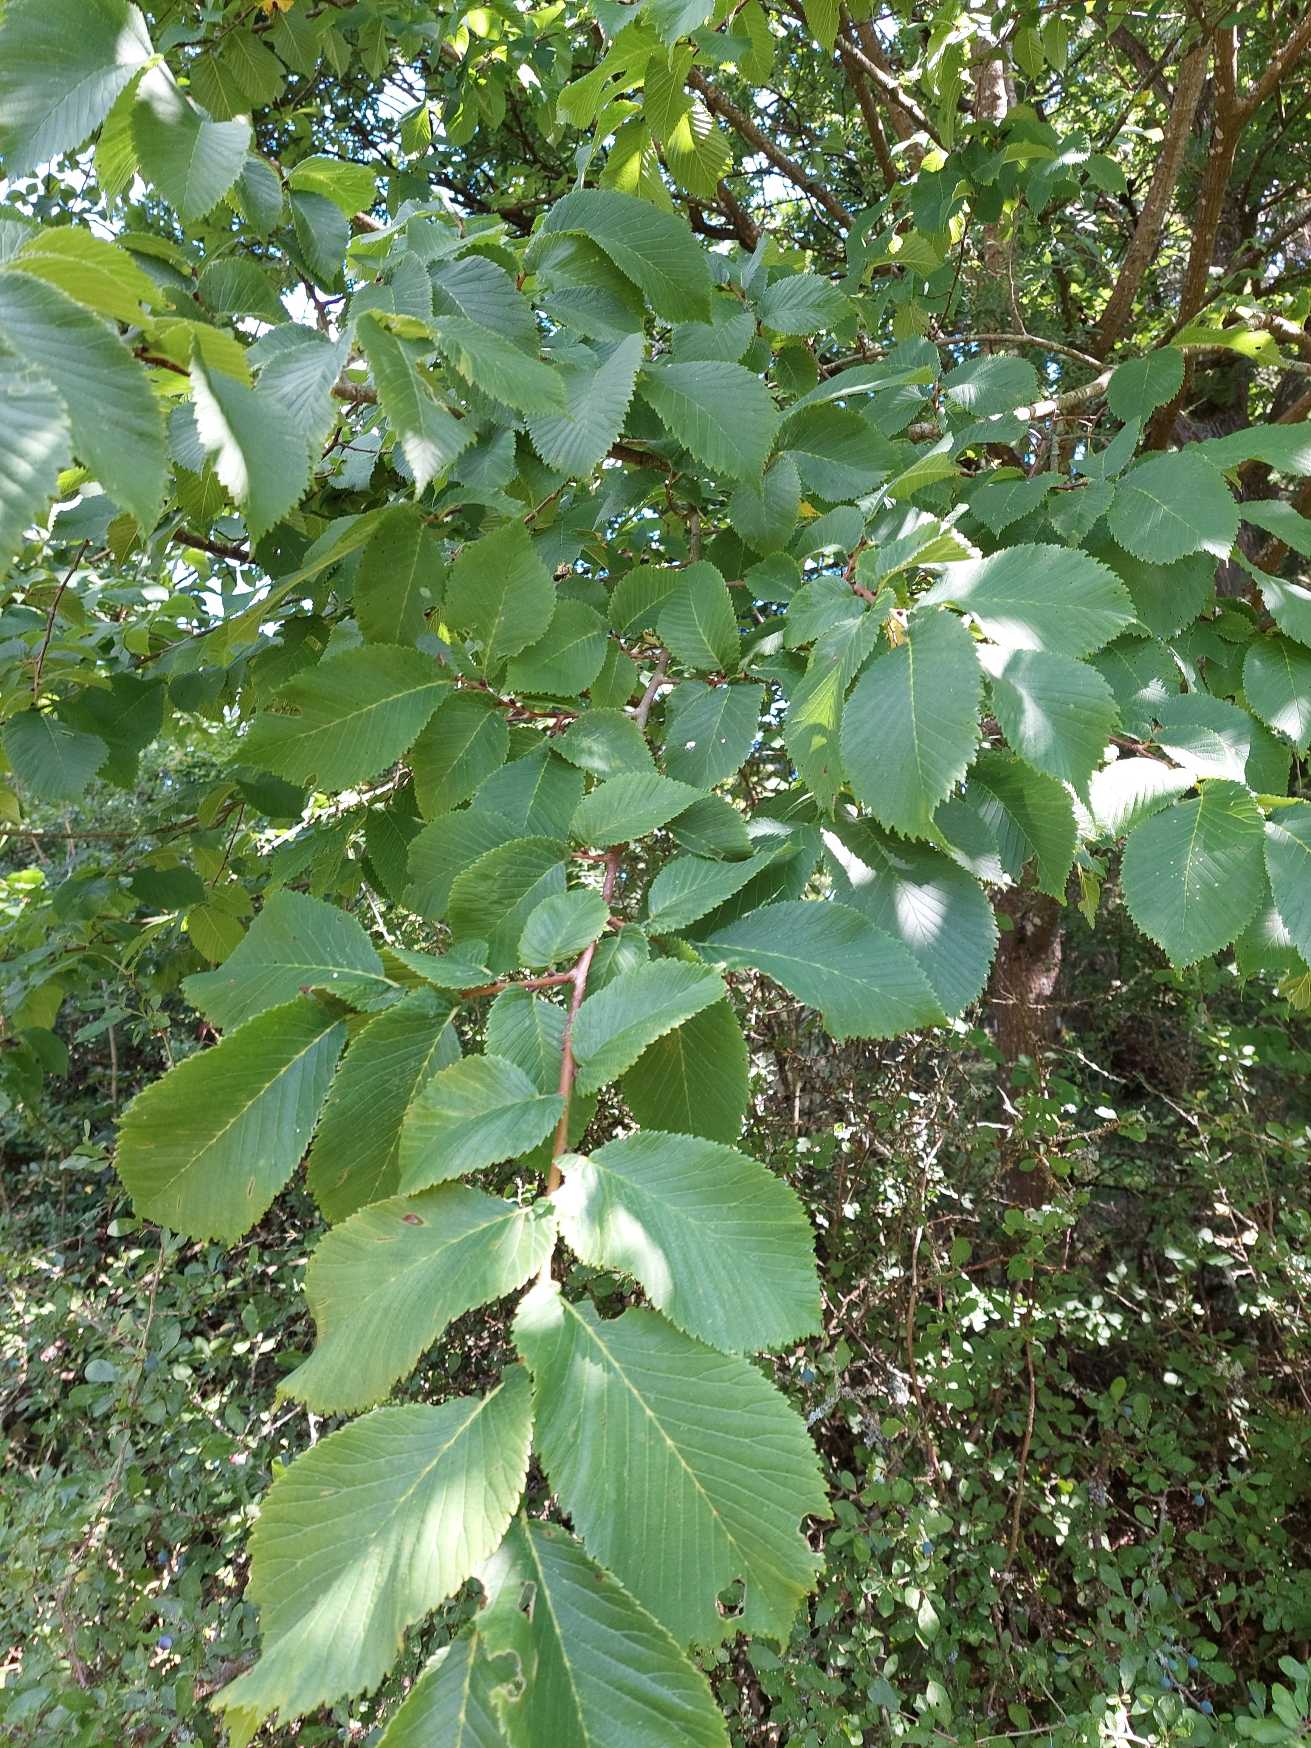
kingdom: Plantae
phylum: Tracheophyta
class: Magnoliopsida
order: Rosales
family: Ulmaceae
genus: Ulmus
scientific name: Ulmus glabra
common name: Skov-elm/storbladet elm
